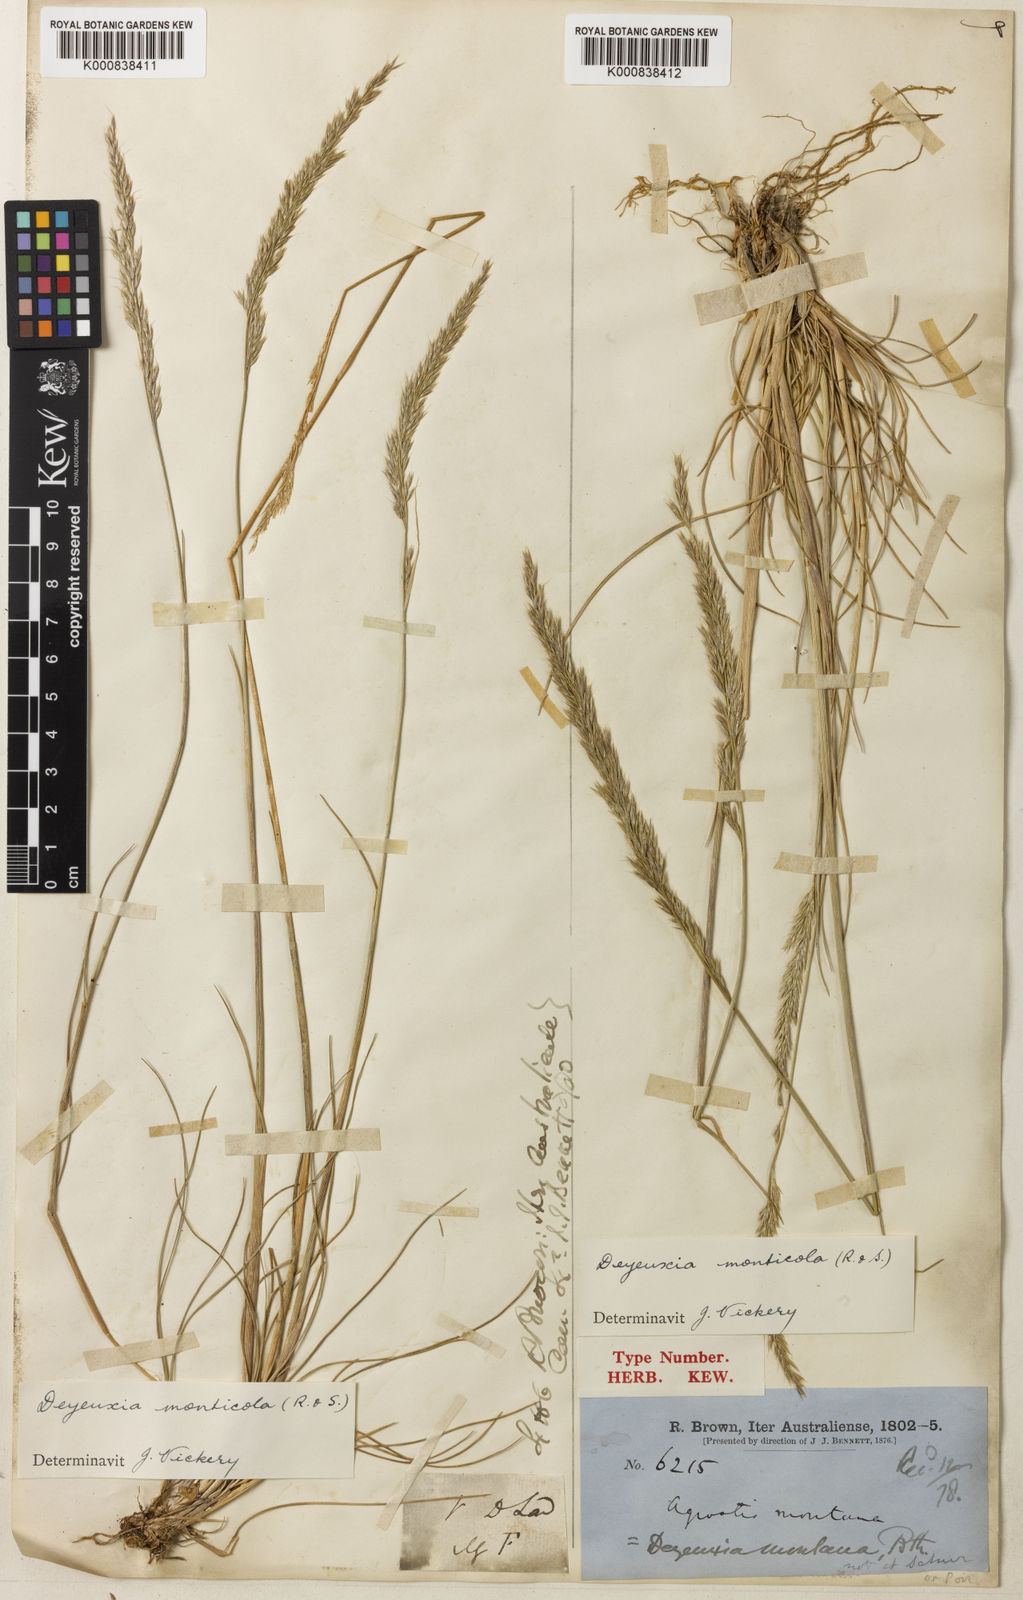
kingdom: Plantae
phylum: Tracheophyta
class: Liliopsida
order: Poales
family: Poaceae
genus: Calamagrostis
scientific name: Calamagrostis arundinacea
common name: Metskastik
